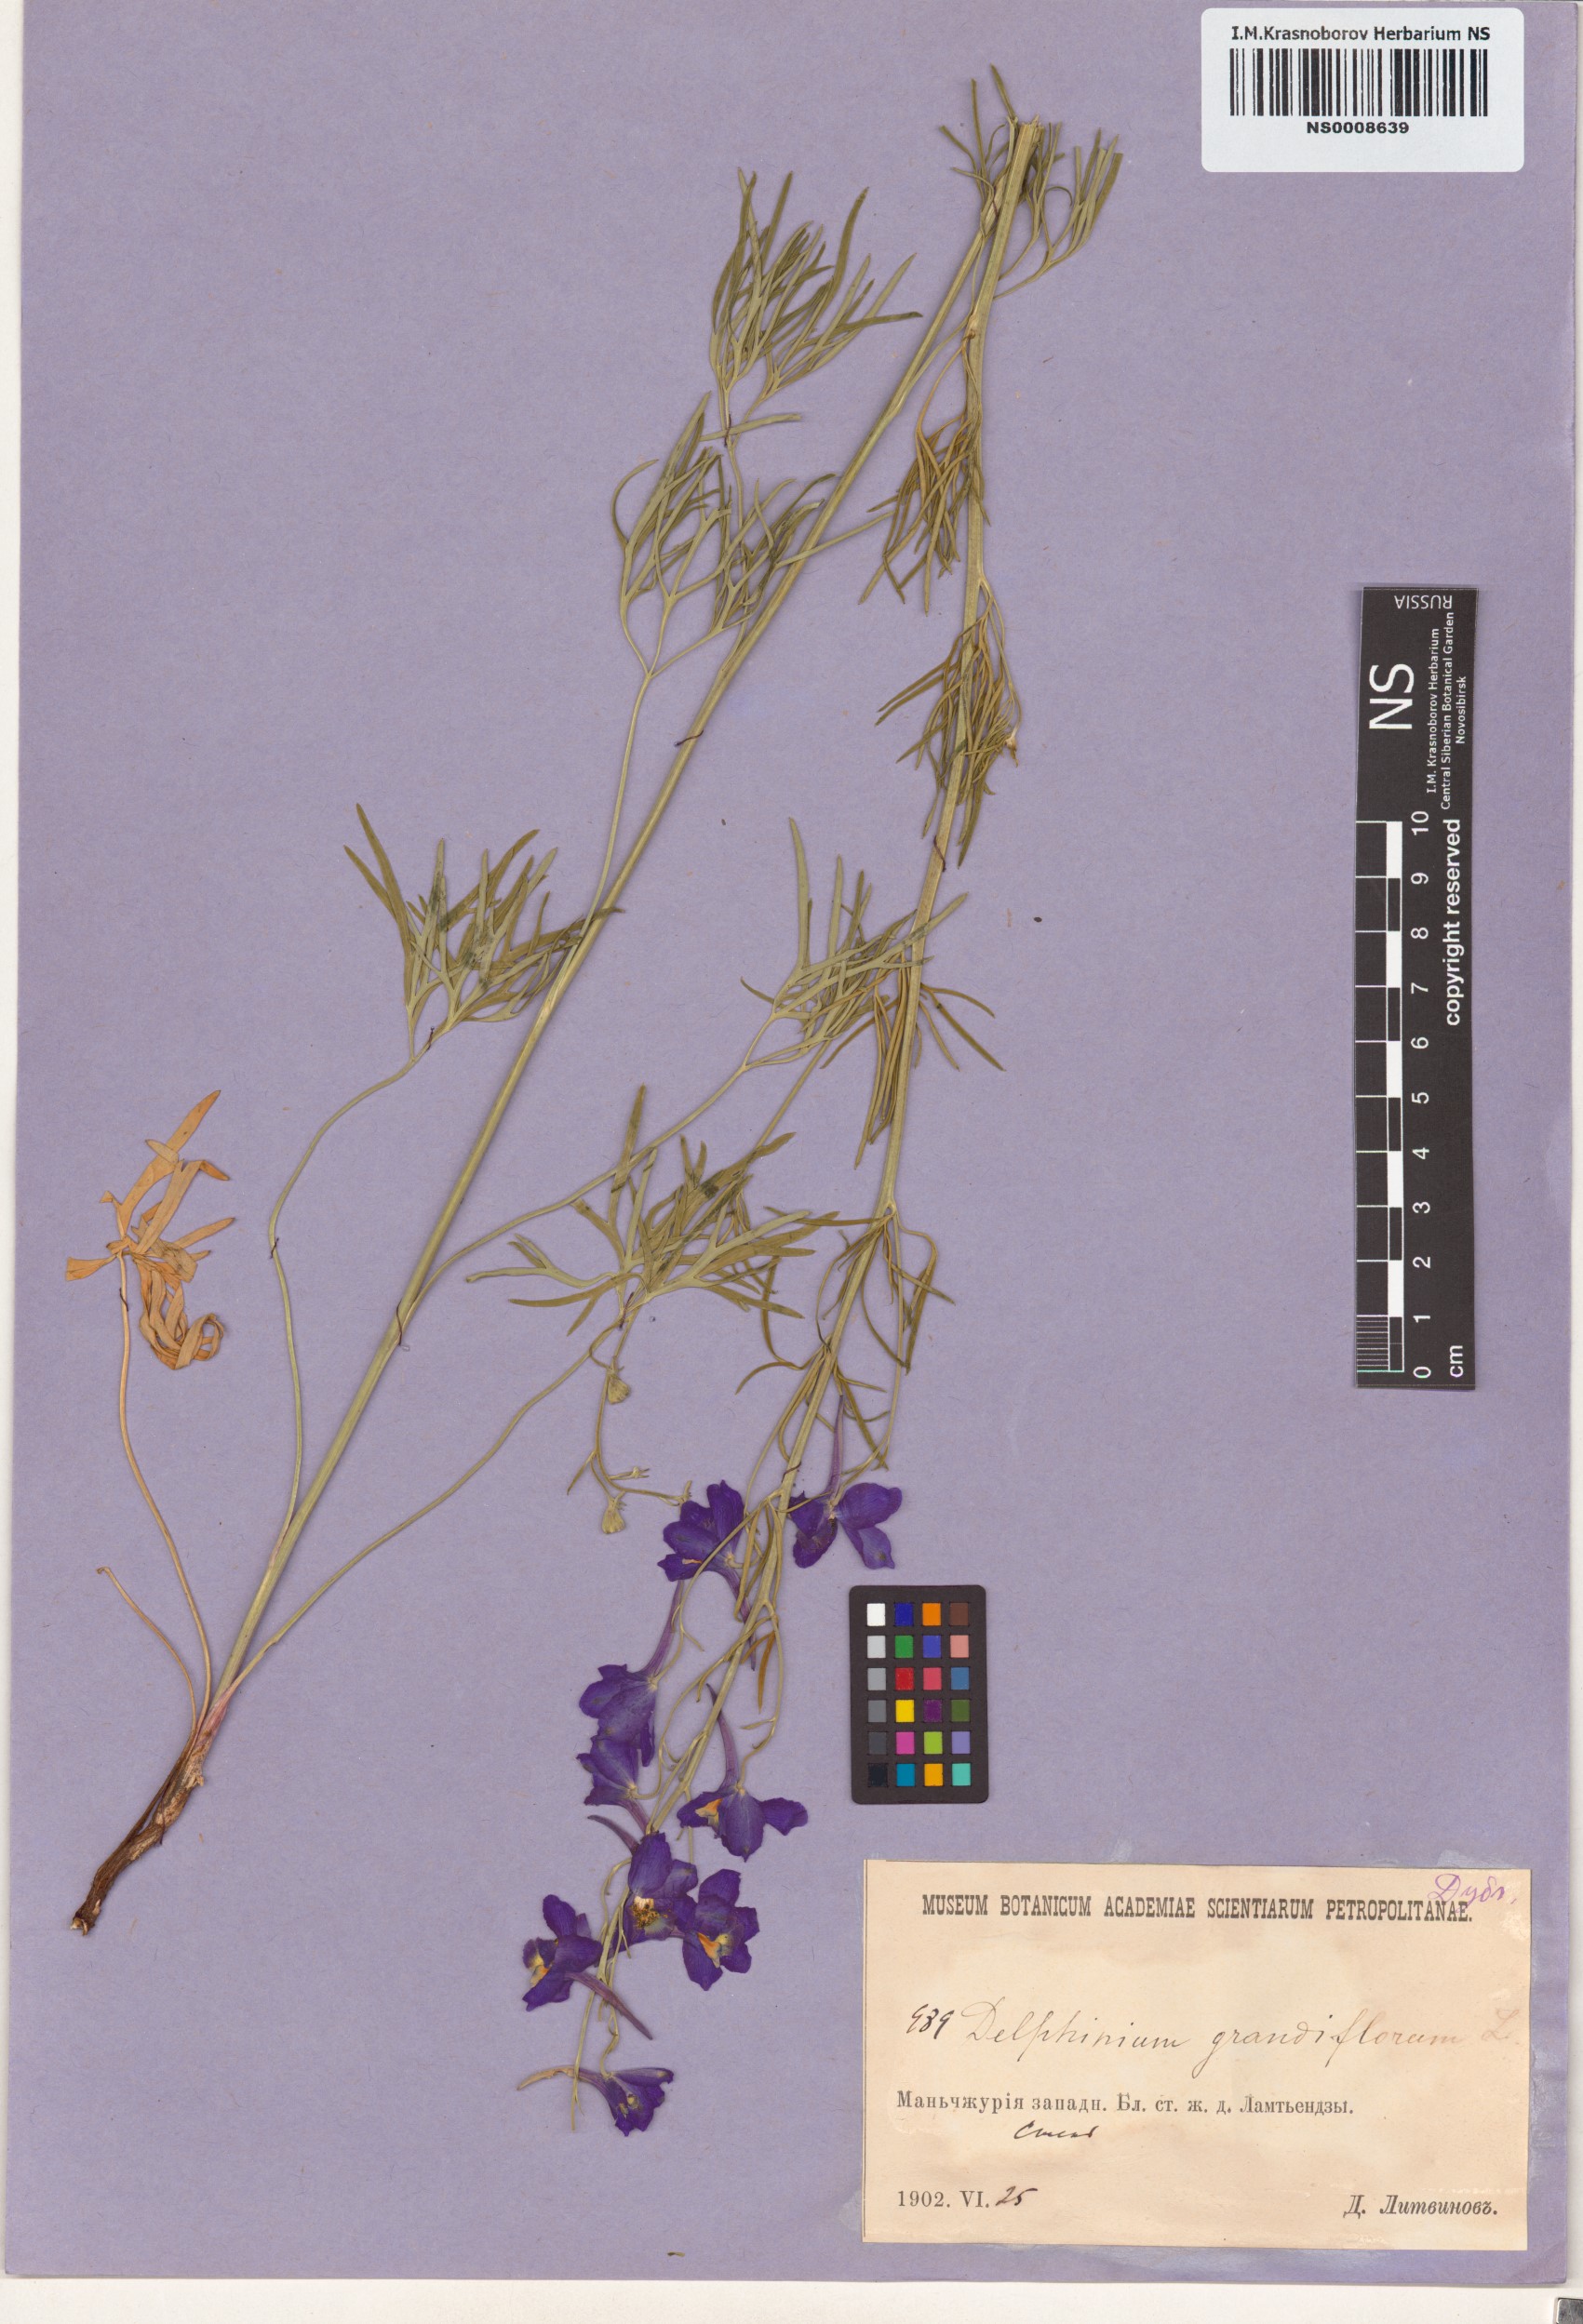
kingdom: Plantae
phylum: Tracheophyta
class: Magnoliopsida
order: Ranunculales
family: Ranunculaceae
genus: Delphinium
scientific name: Delphinium grandiflorum
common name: Siberian larkspur
